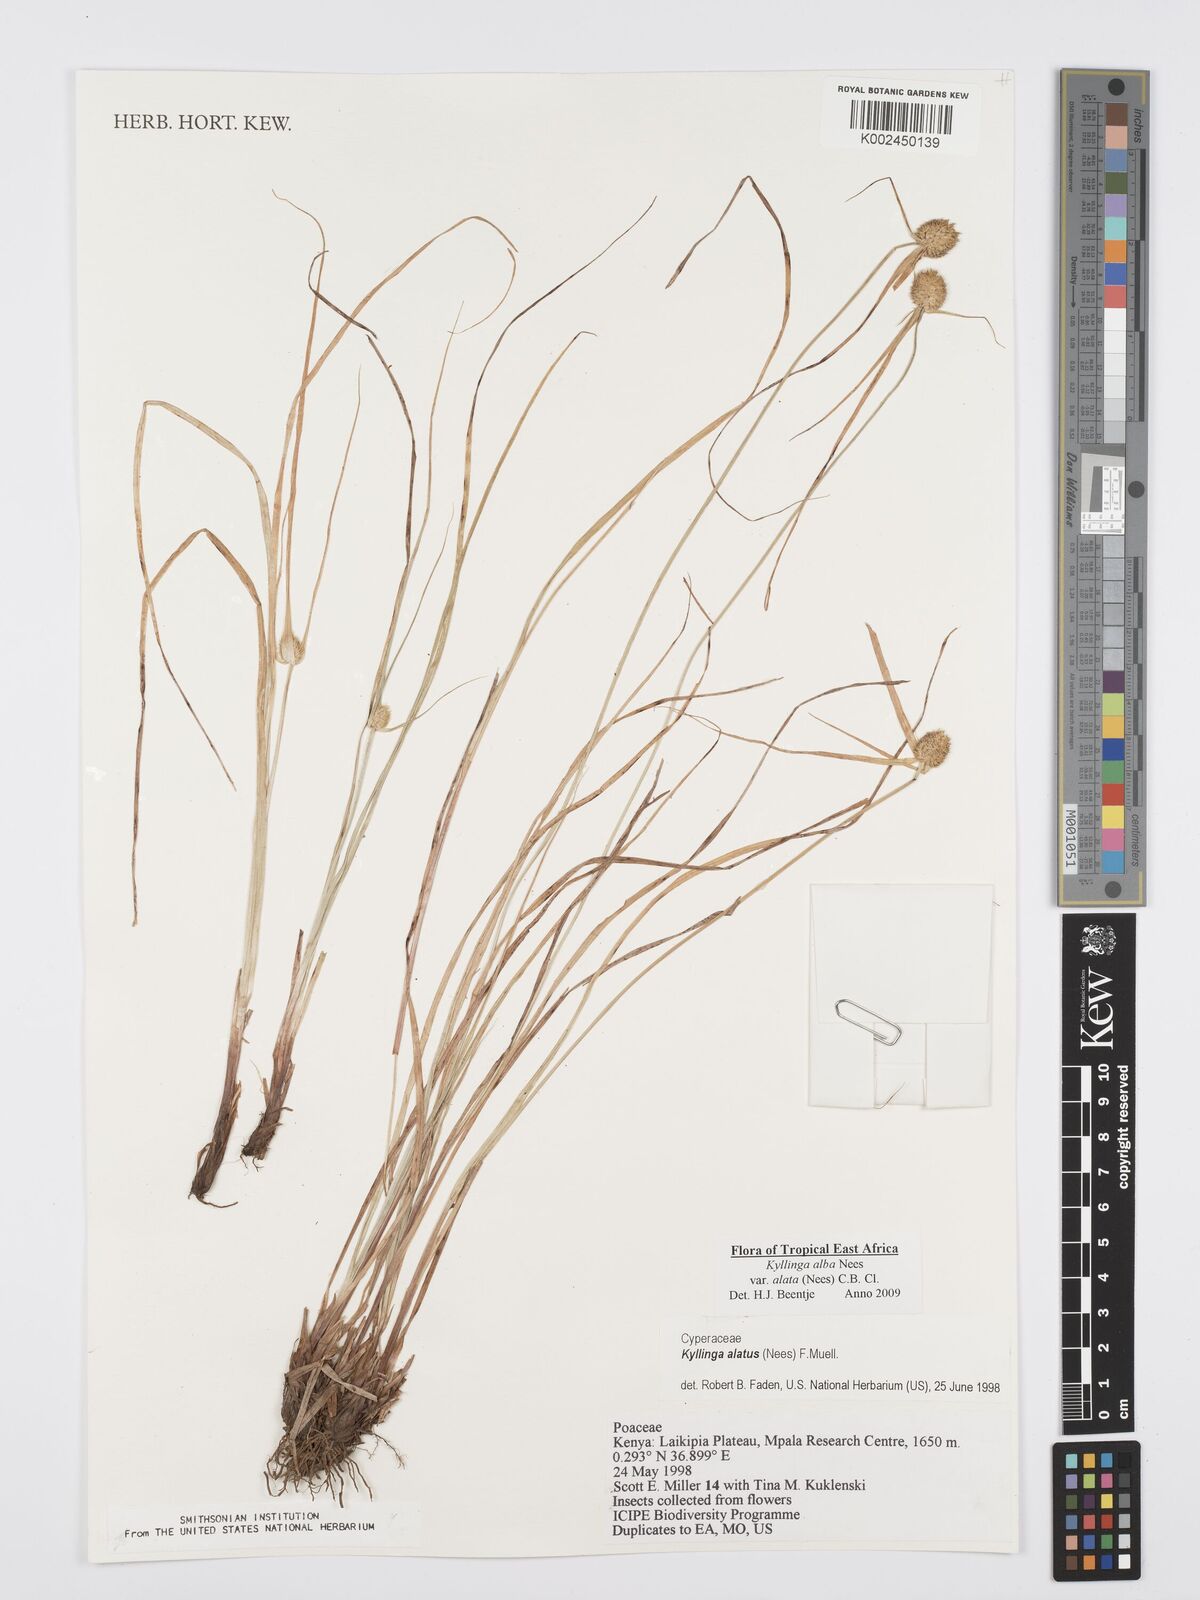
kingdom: Plantae
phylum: Tracheophyta
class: Liliopsida
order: Poales
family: Cyperaceae
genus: Cyperus
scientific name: Cyperus alatus
